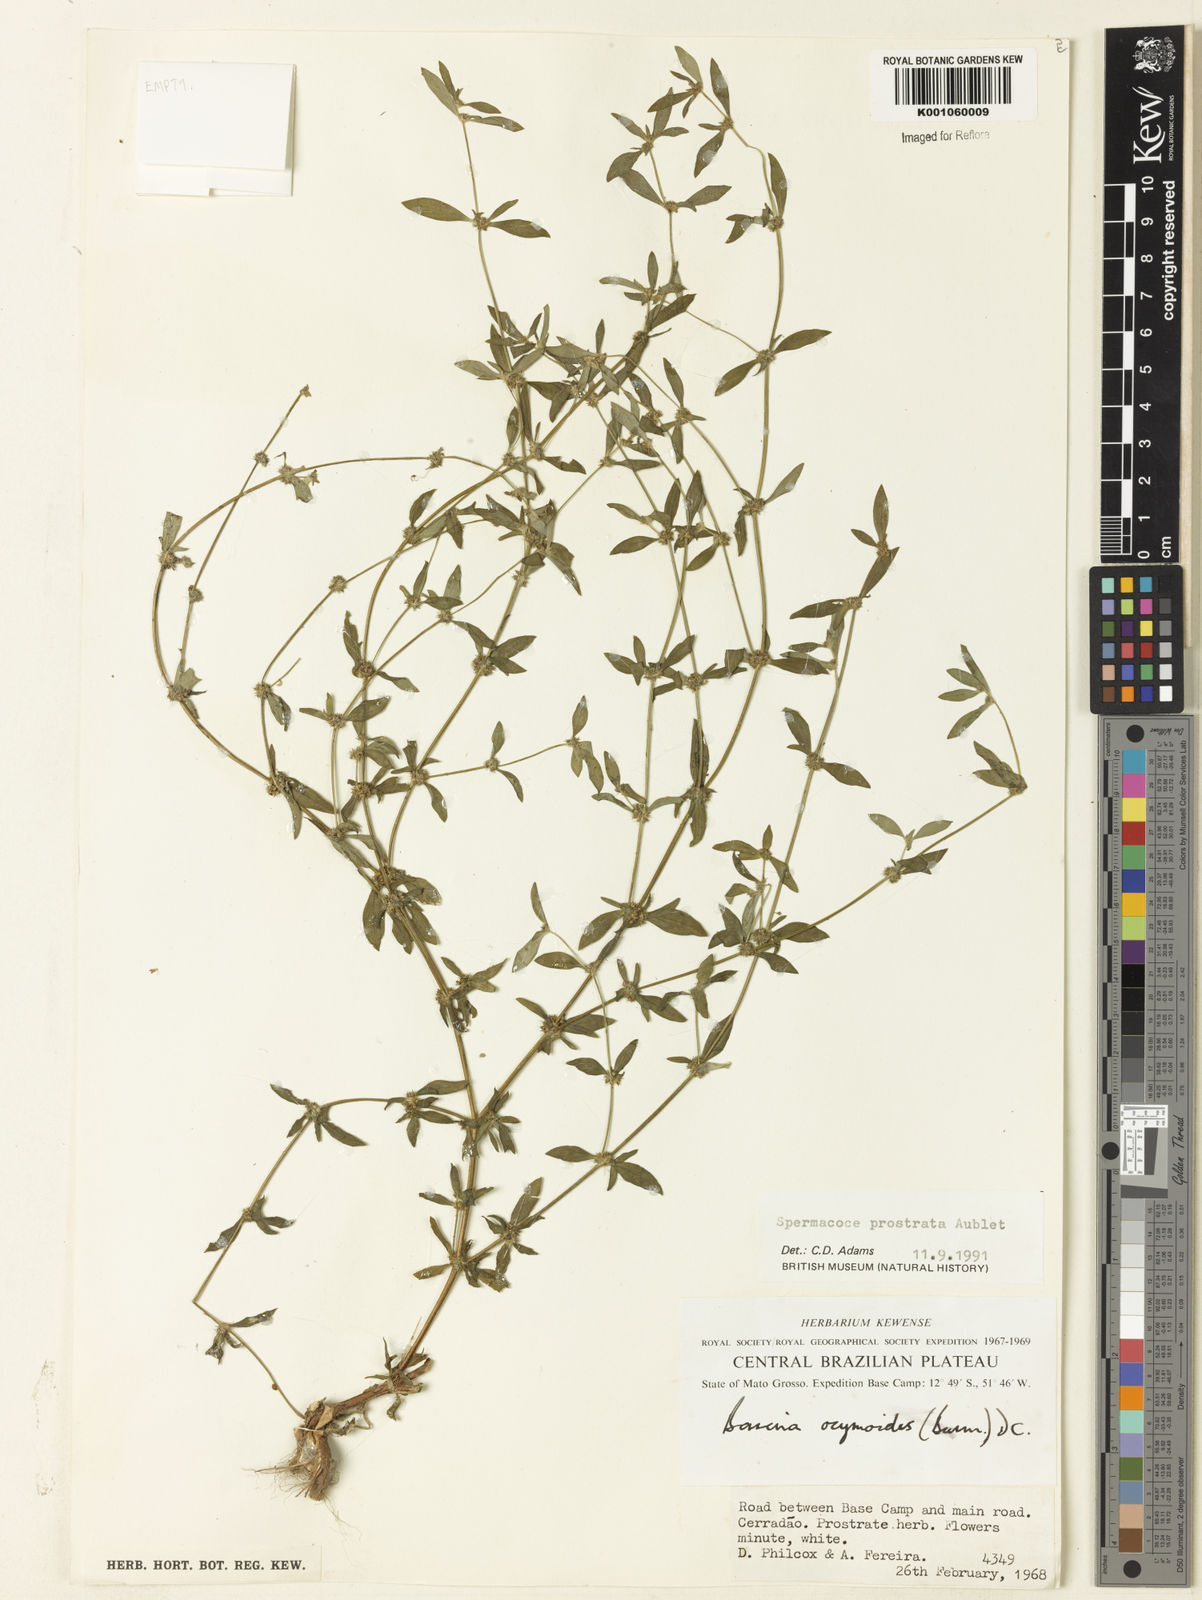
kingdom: Plantae
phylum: Tracheophyta
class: Magnoliopsida
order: Gentianales
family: Rubiaceae
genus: Spermacoce
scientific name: Spermacoce
